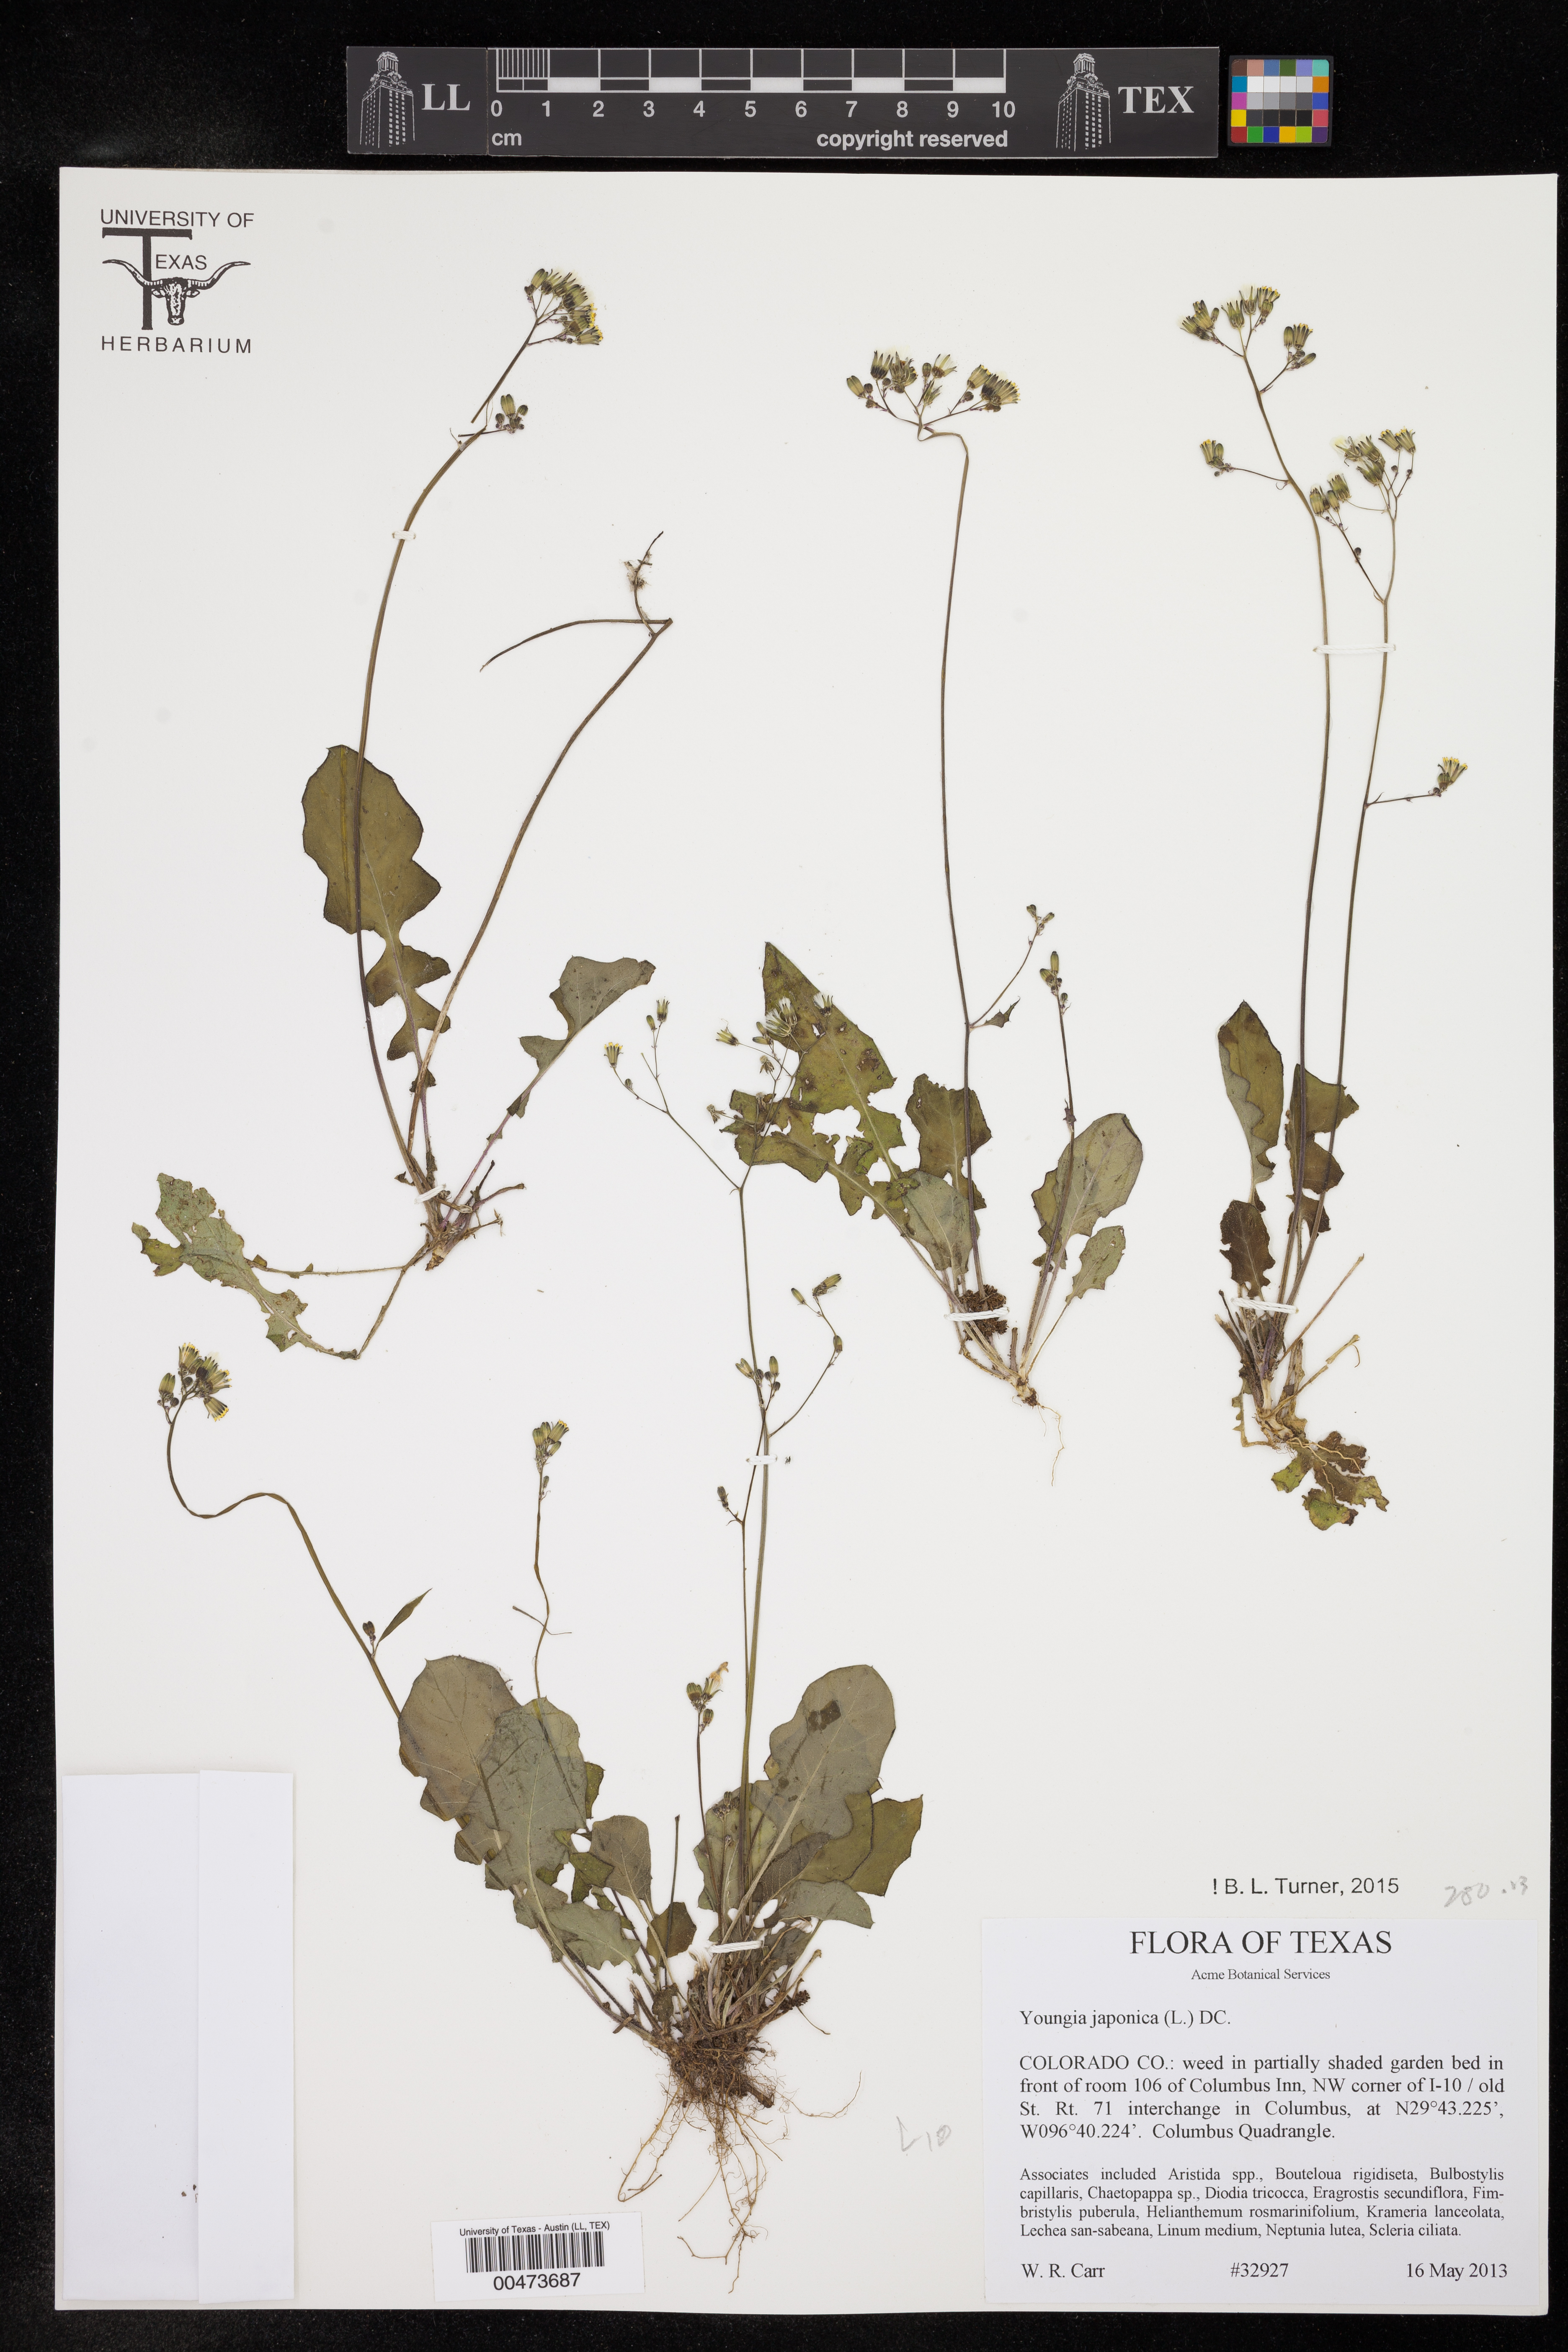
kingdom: Plantae
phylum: Tracheophyta
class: Magnoliopsida
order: Asterales
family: Asteraceae
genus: Youngia
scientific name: Youngia japonica
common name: Oriental false hawksbeard
